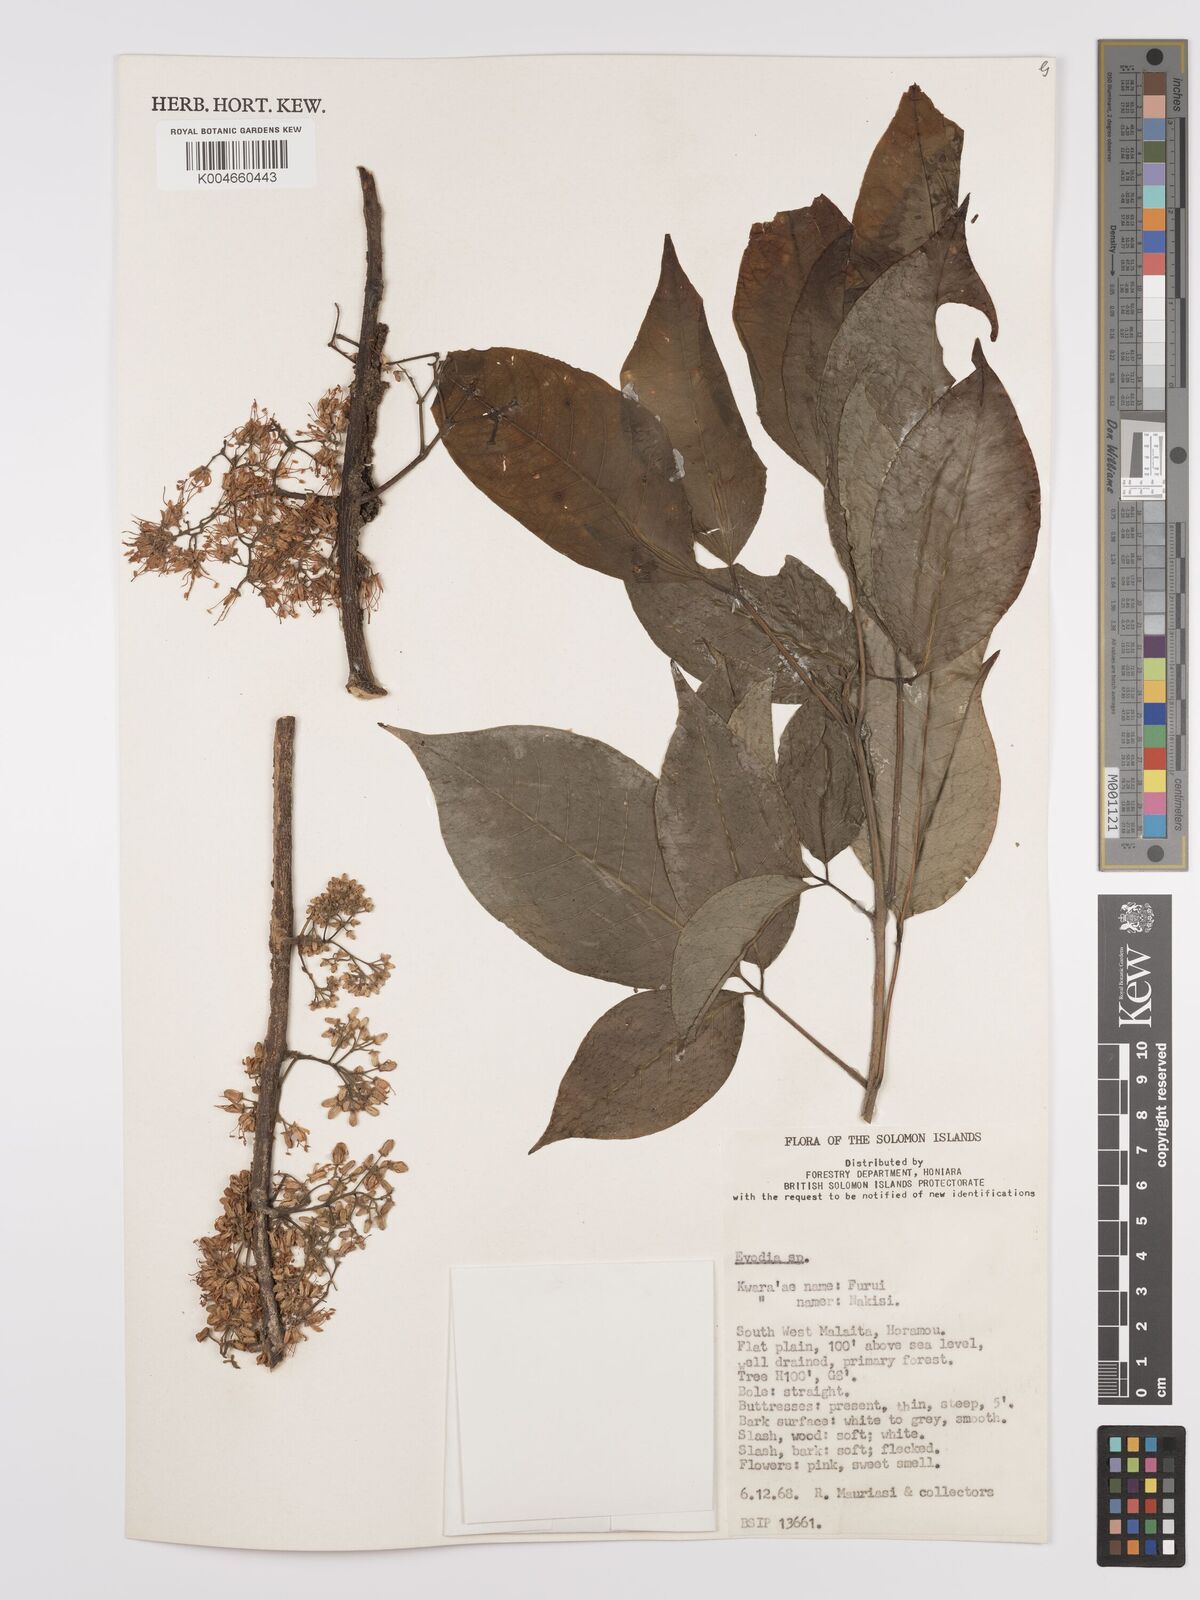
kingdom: Plantae
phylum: Tracheophyta
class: Magnoliopsida
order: Sapindales
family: Rutaceae
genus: Euodia
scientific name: Euodia
